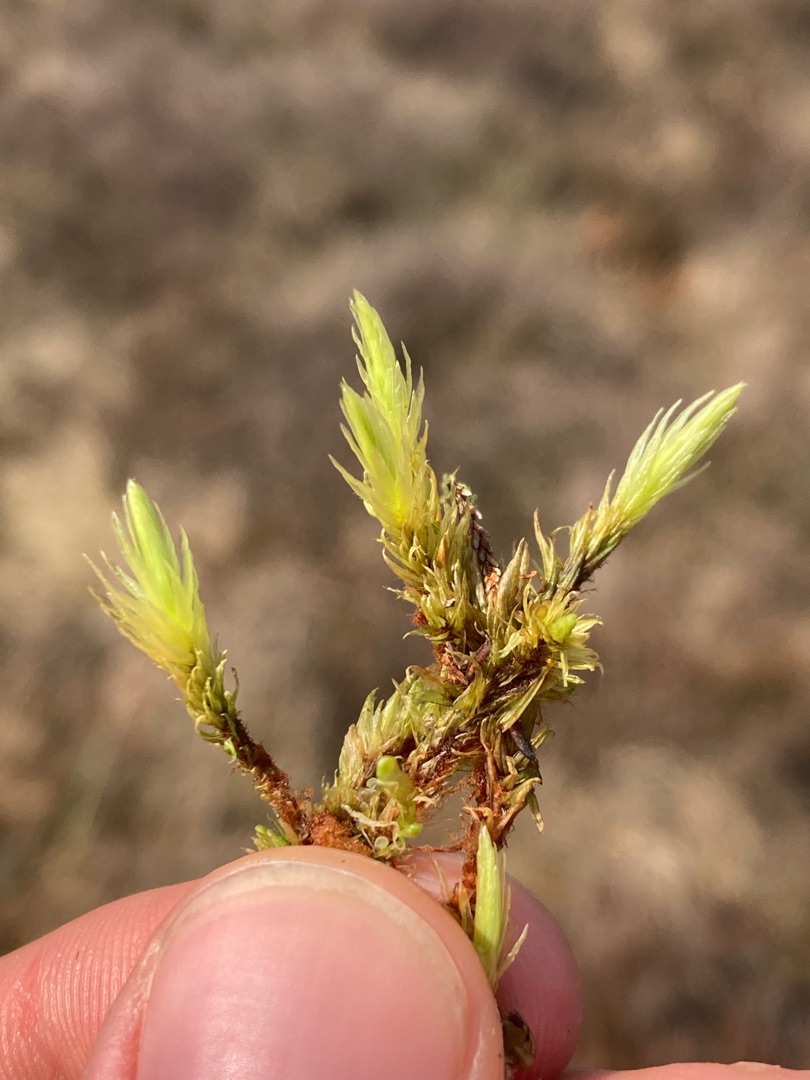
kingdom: Plantae
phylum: Bryophyta
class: Bryopsida
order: Aulacomniales
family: Aulacomniaceae
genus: Aulacomnium
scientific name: Aulacomnium palustre
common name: Almindelig filtmos
